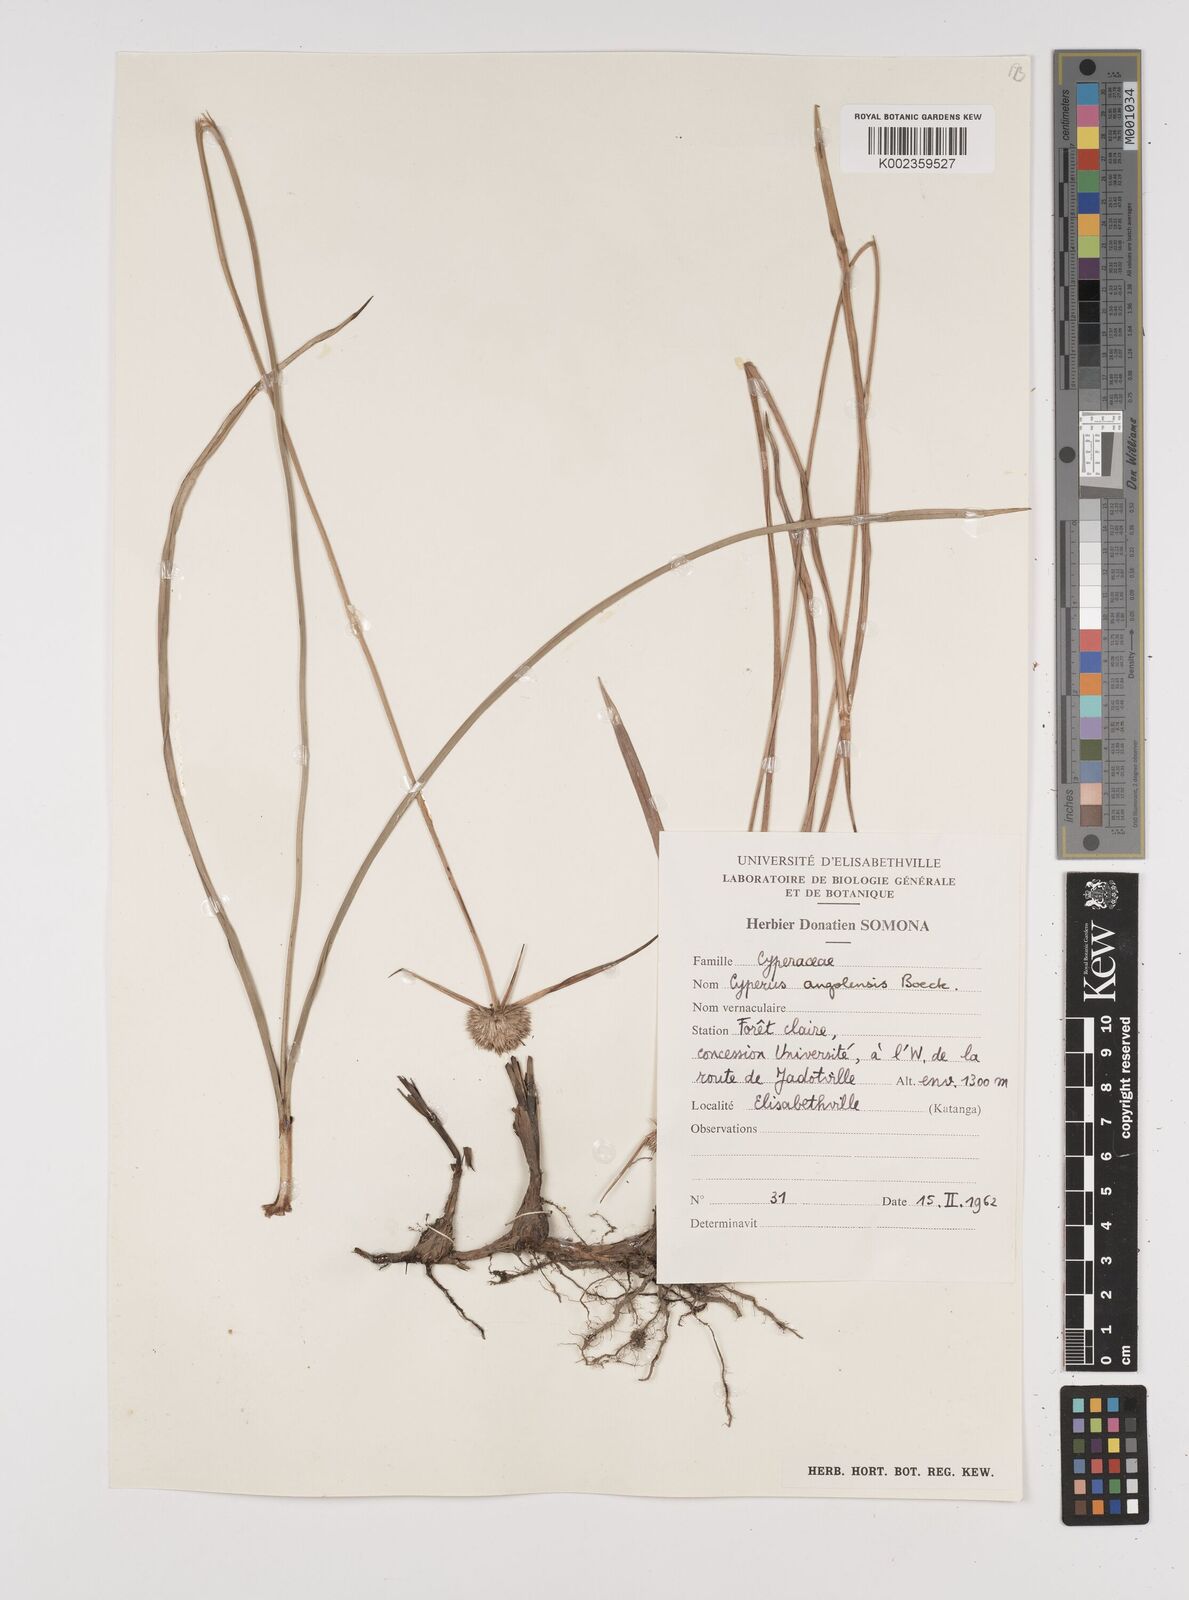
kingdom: Plantae
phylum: Tracheophyta
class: Liliopsida
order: Poales
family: Cyperaceae
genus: Cyperus
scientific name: Cyperus angolensis
